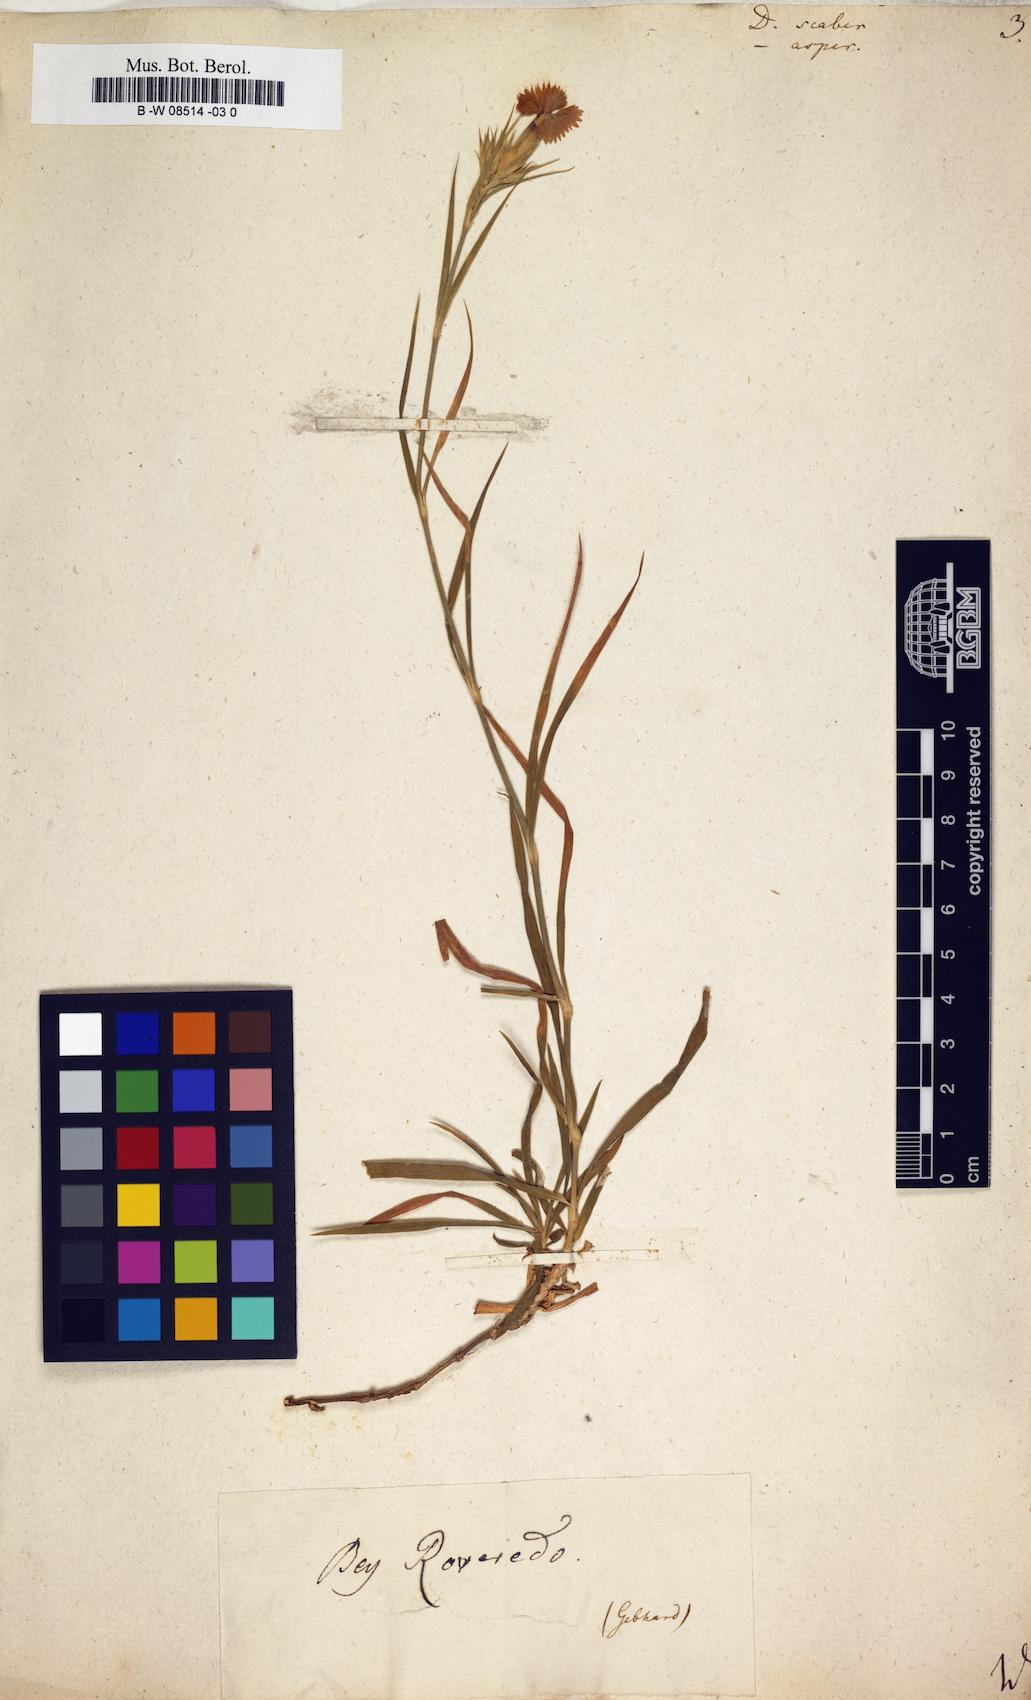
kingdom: Plantae
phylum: Tracheophyta
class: Magnoliopsida
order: Caryophyllales
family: Caryophyllaceae
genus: Dianthus
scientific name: Dianthus scaber
